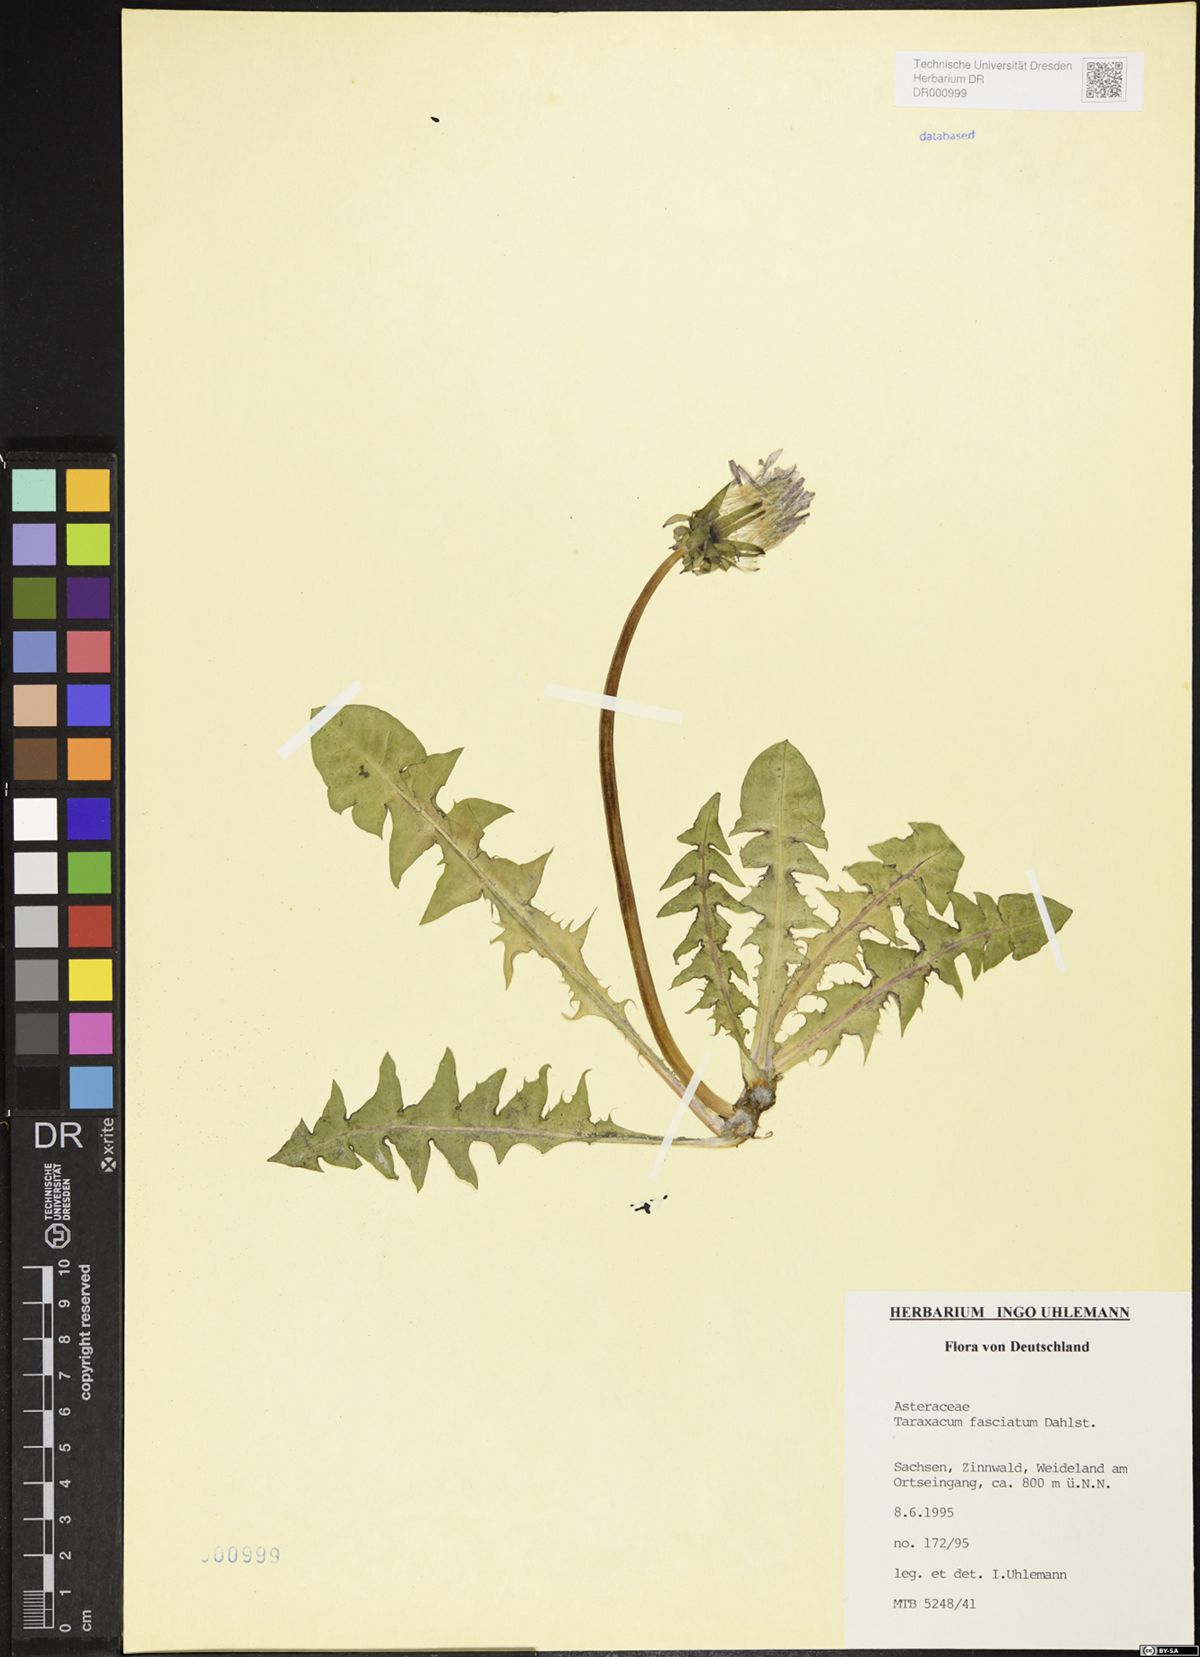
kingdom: Plantae
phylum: Tracheophyta
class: Magnoliopsida
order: Asterales
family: Asteraceae
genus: Taraxacum
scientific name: Taraxacum fasciatum
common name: Dense-bracted dandelion
